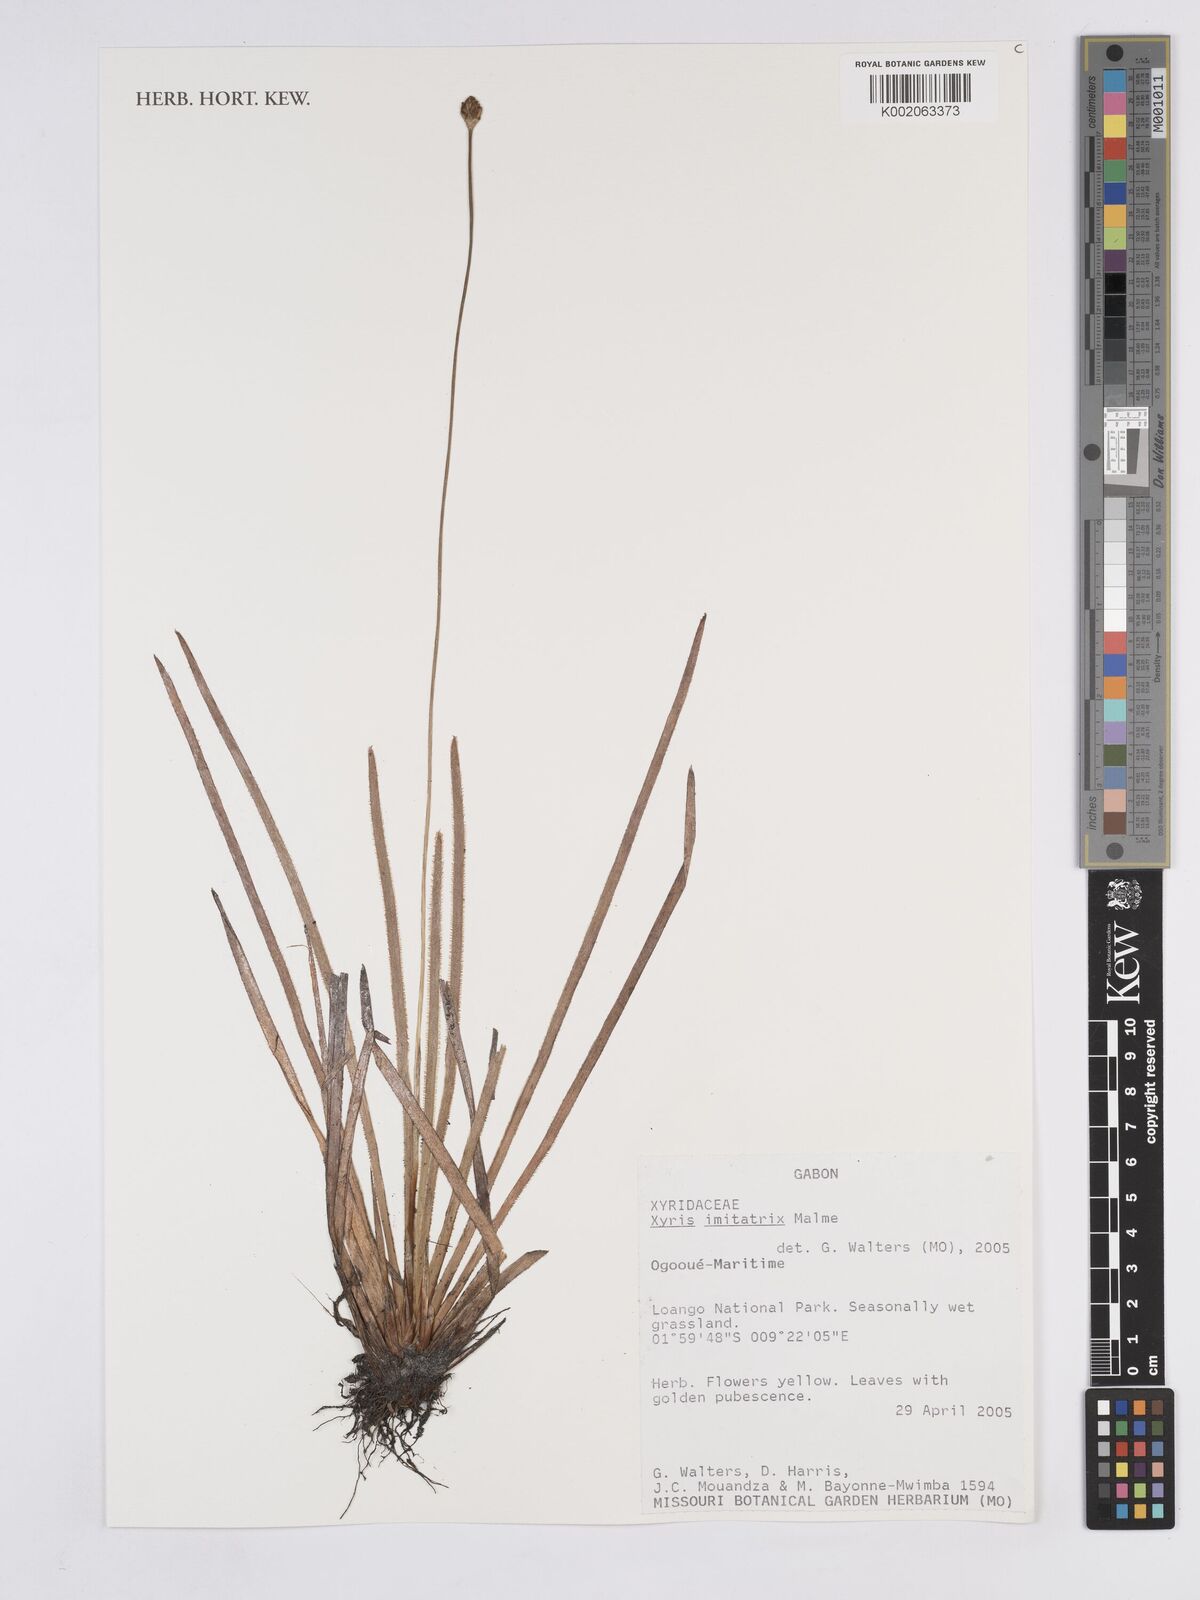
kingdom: Plantae
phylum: Tracheophyta
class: Liliopsida
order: Poales
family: Xyridaceae
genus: Xyris
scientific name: Xyris imitatrix
